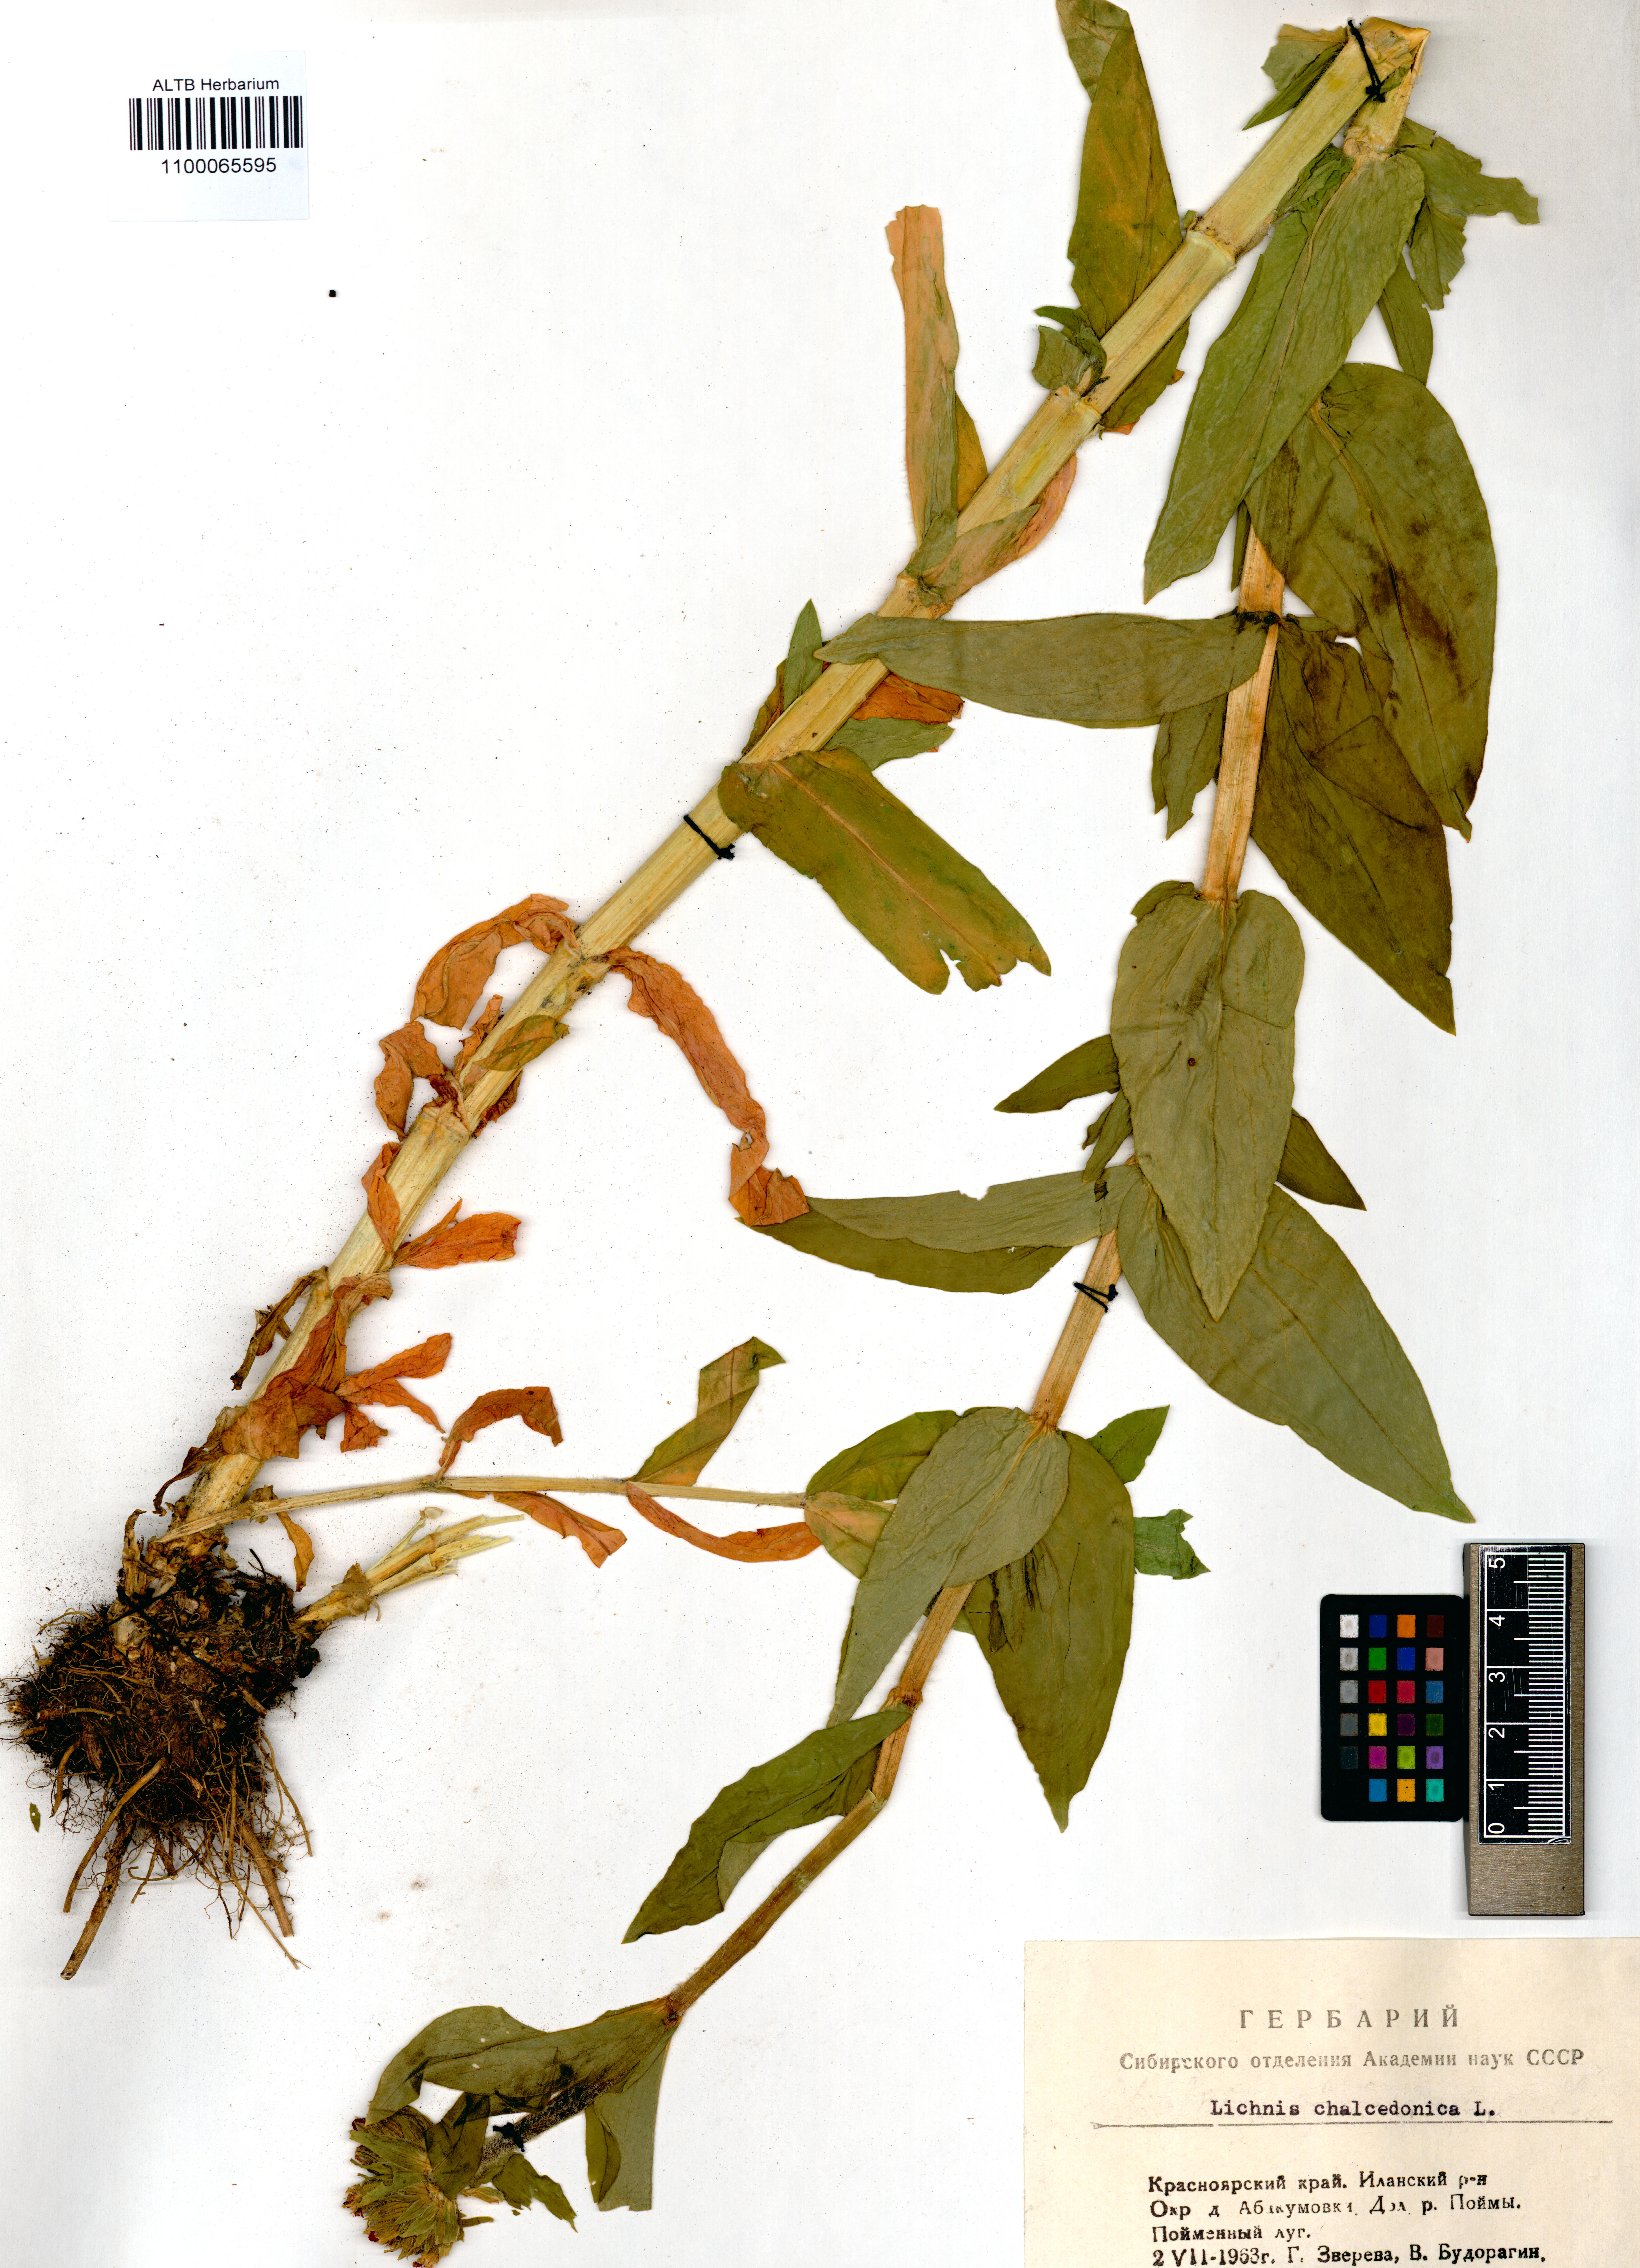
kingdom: Plantae
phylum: Tracheophyta
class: Magnoliopsida
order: Caryophyllales
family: Caryophyllaceae
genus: Silene
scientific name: Silene chalcedonica
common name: Maltese-cross
